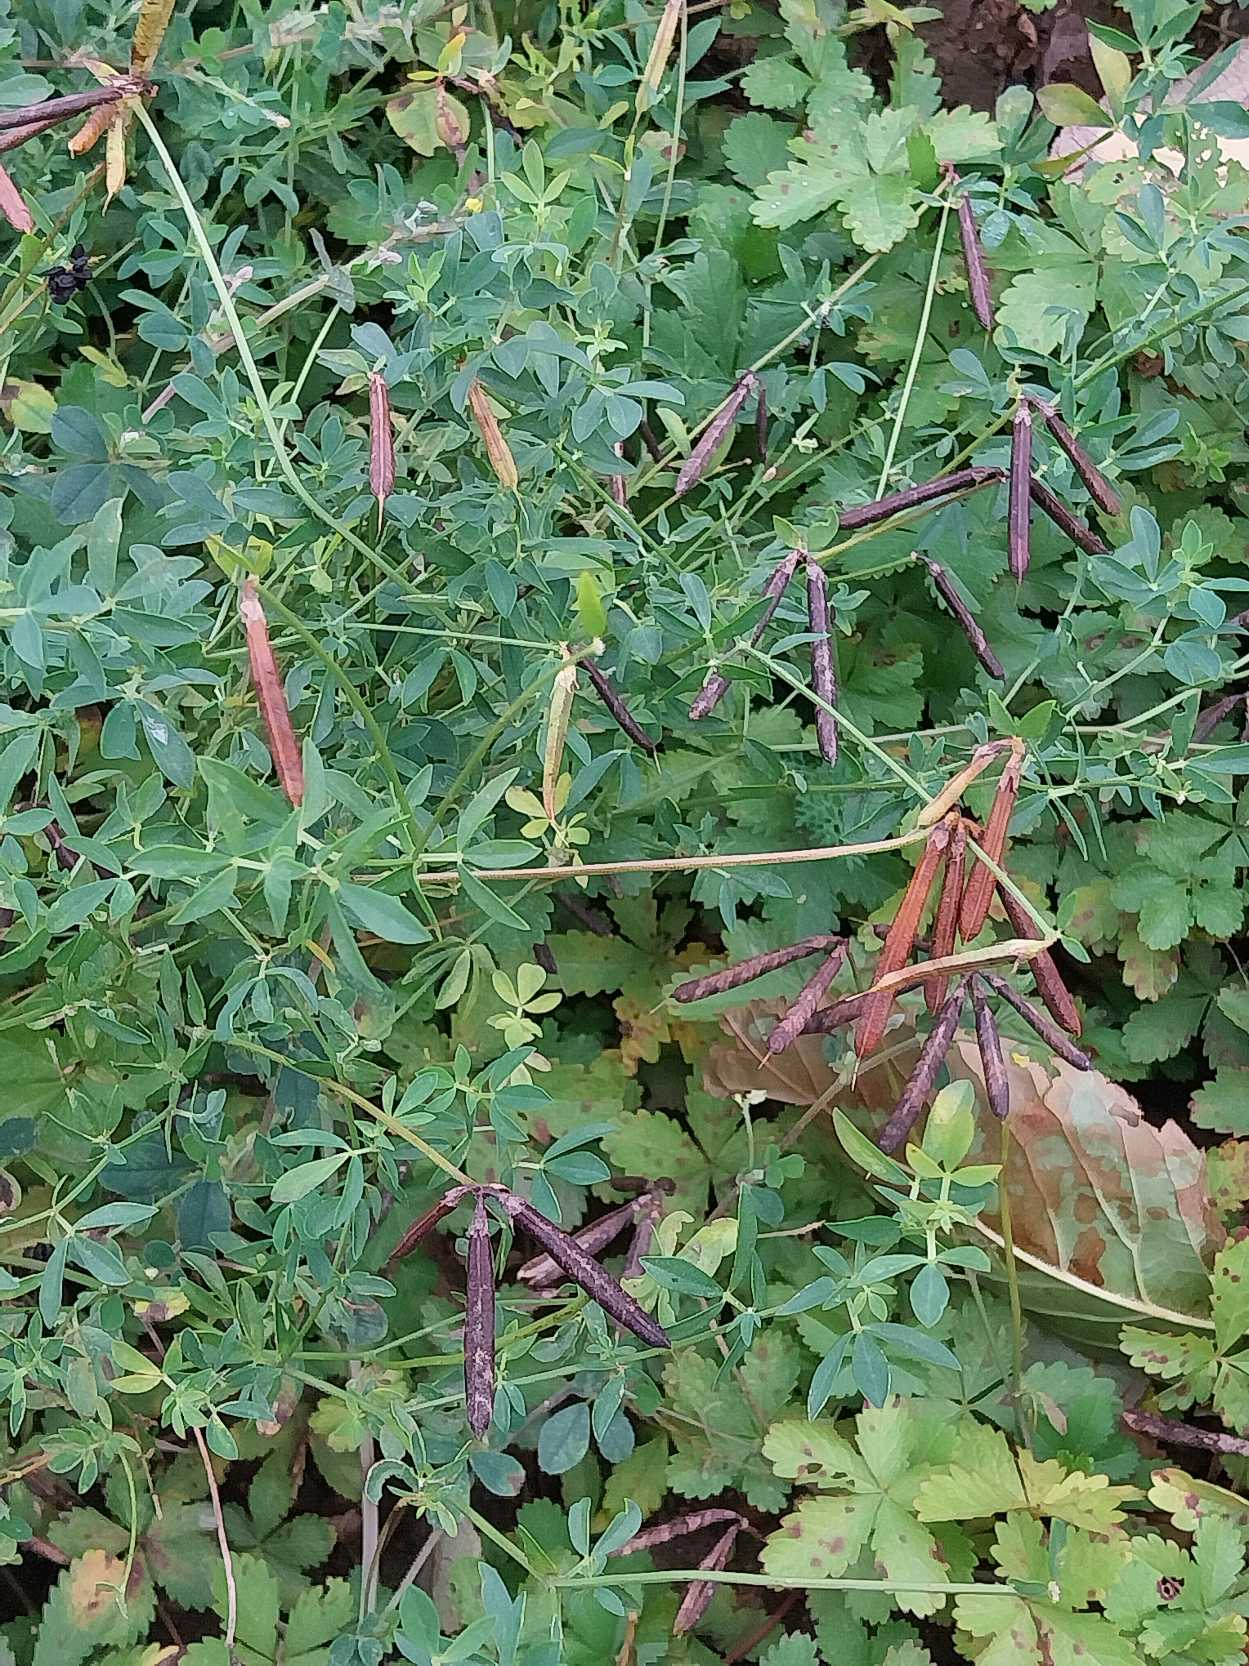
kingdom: Plantae
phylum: Tracheophyta
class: Magnoliopsida
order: Fabales
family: Fabaceae
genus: Lotus
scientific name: Lotus corniculatus
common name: Almindelig kællingetand
